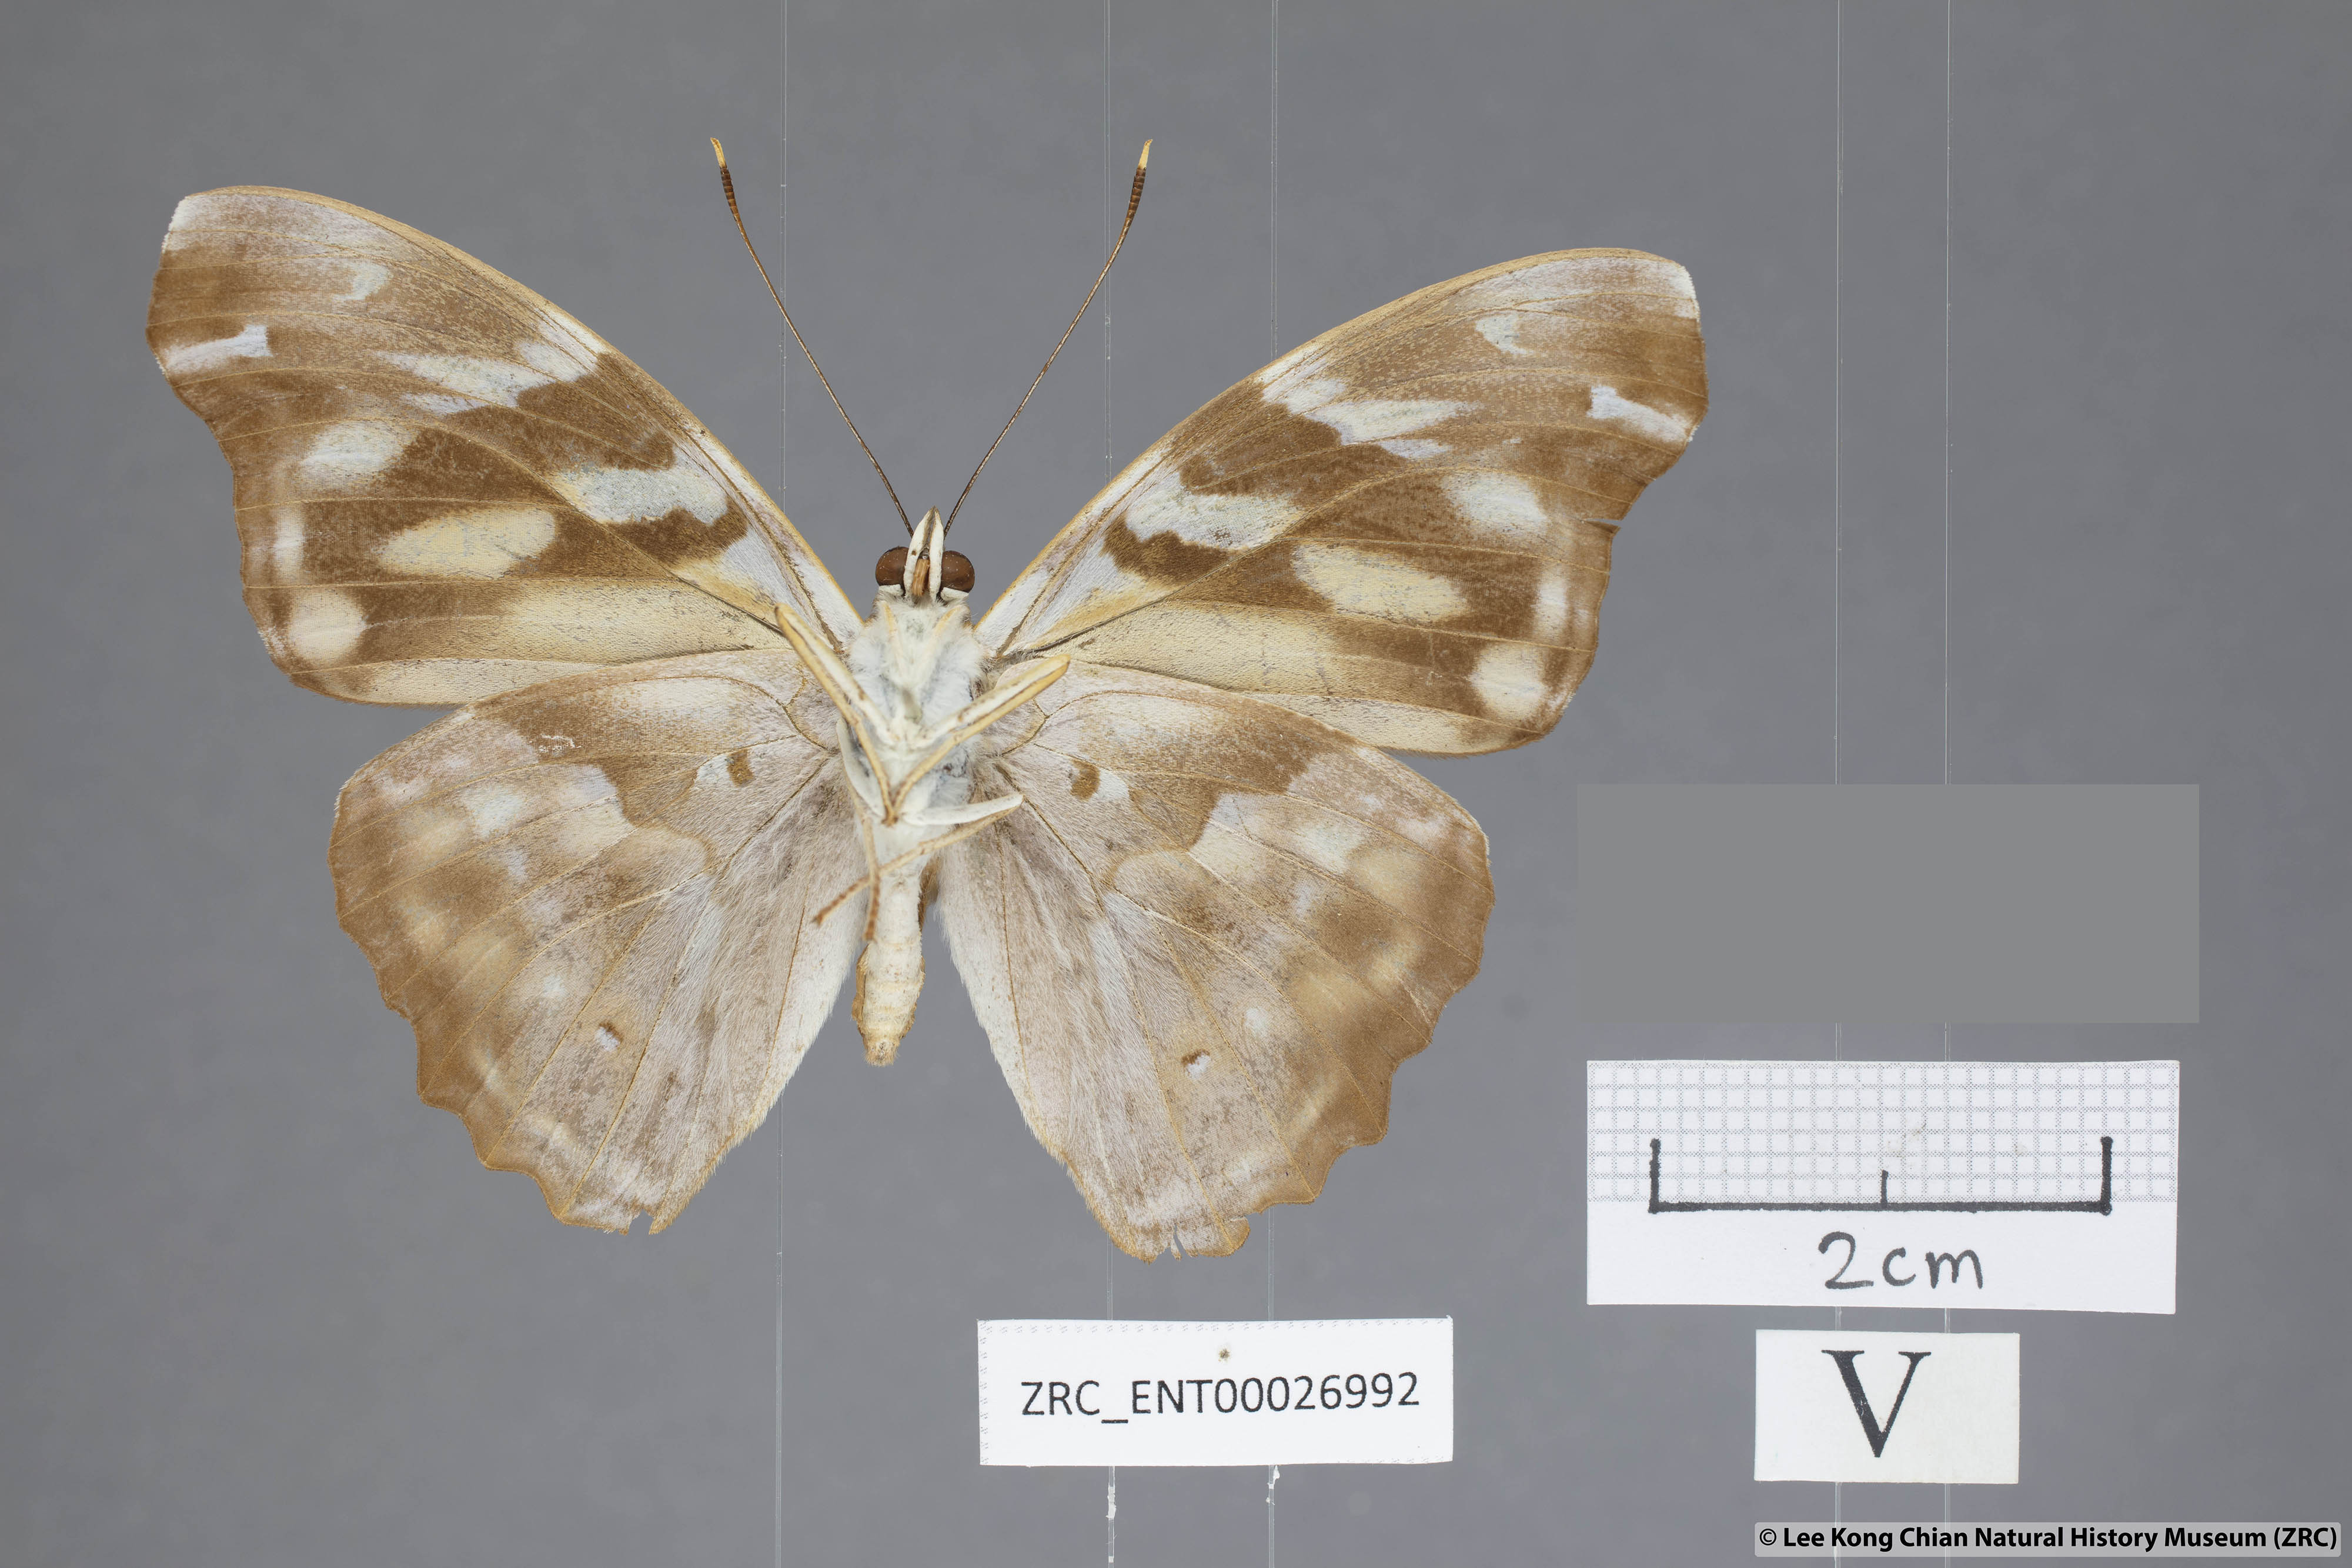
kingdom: Animalia
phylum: Arthropoda
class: Insecta
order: Lepidoptera
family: Nymphalidae
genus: Herona
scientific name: Herona marathus
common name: Yellow pasha
